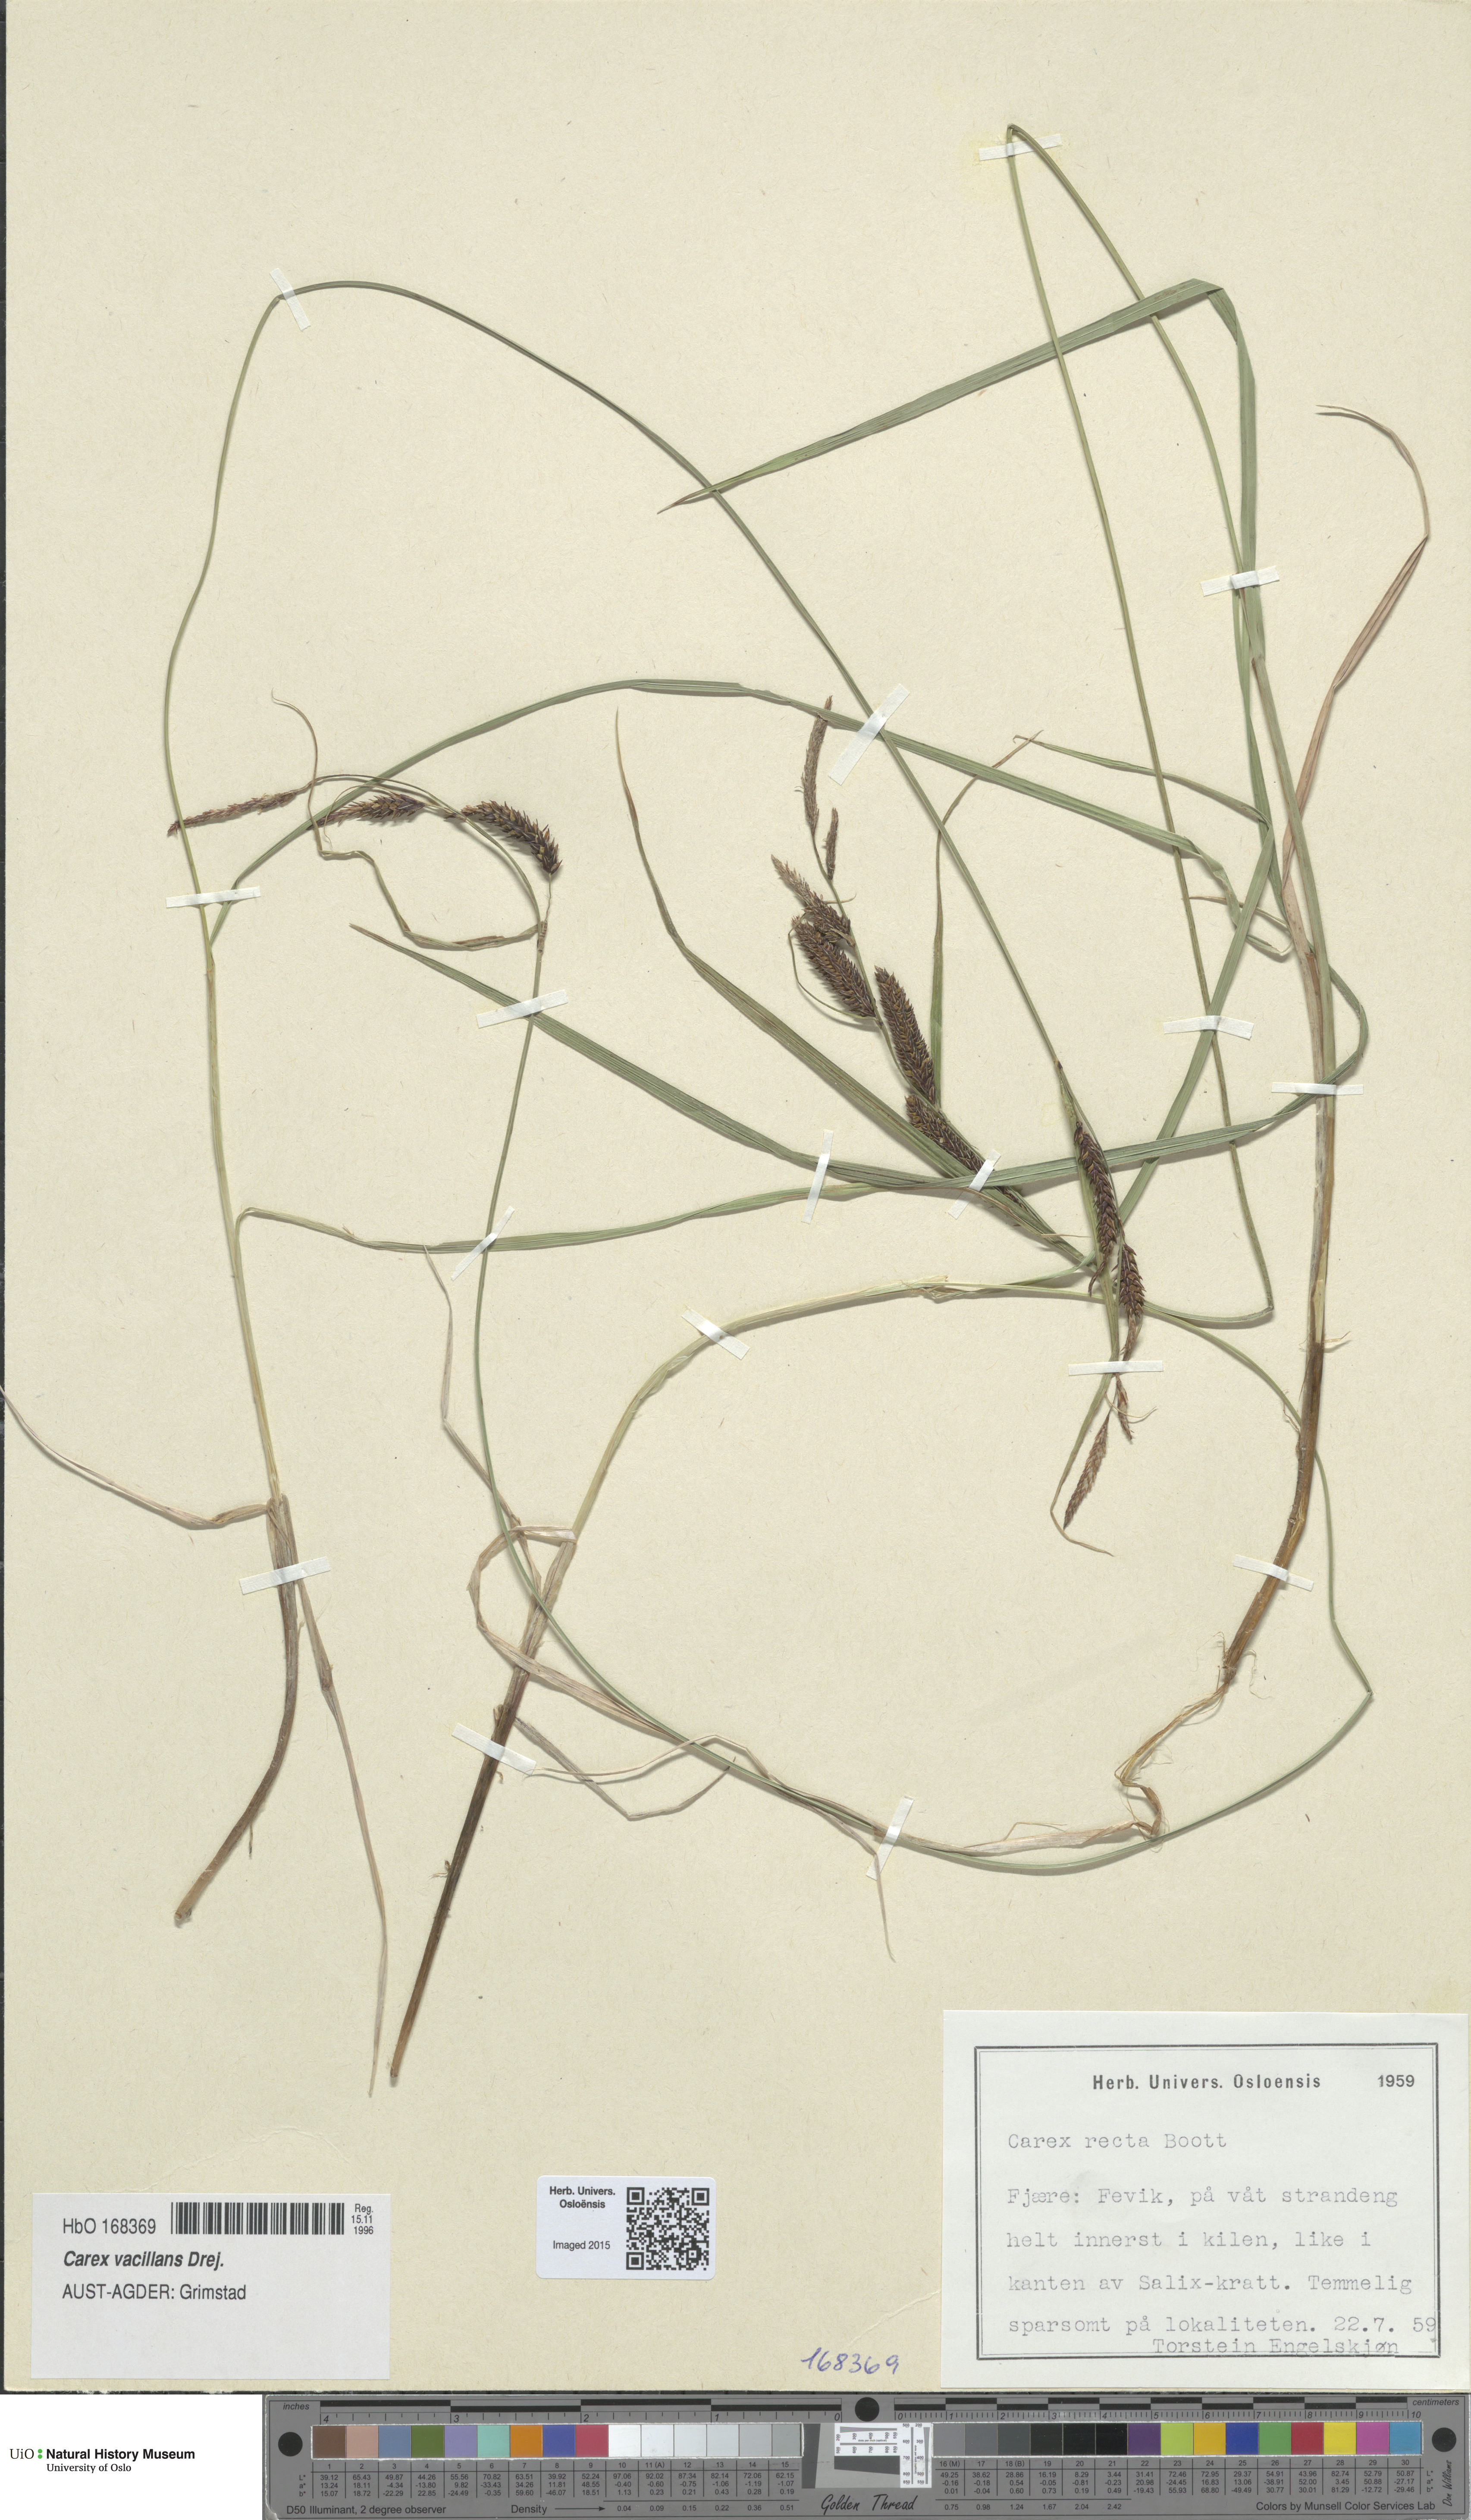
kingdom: Plantae
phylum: Tracheophyta
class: Liliopsida
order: Poales
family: Cyperaceae
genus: Carex
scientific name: Carex vacillans
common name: Sedge
